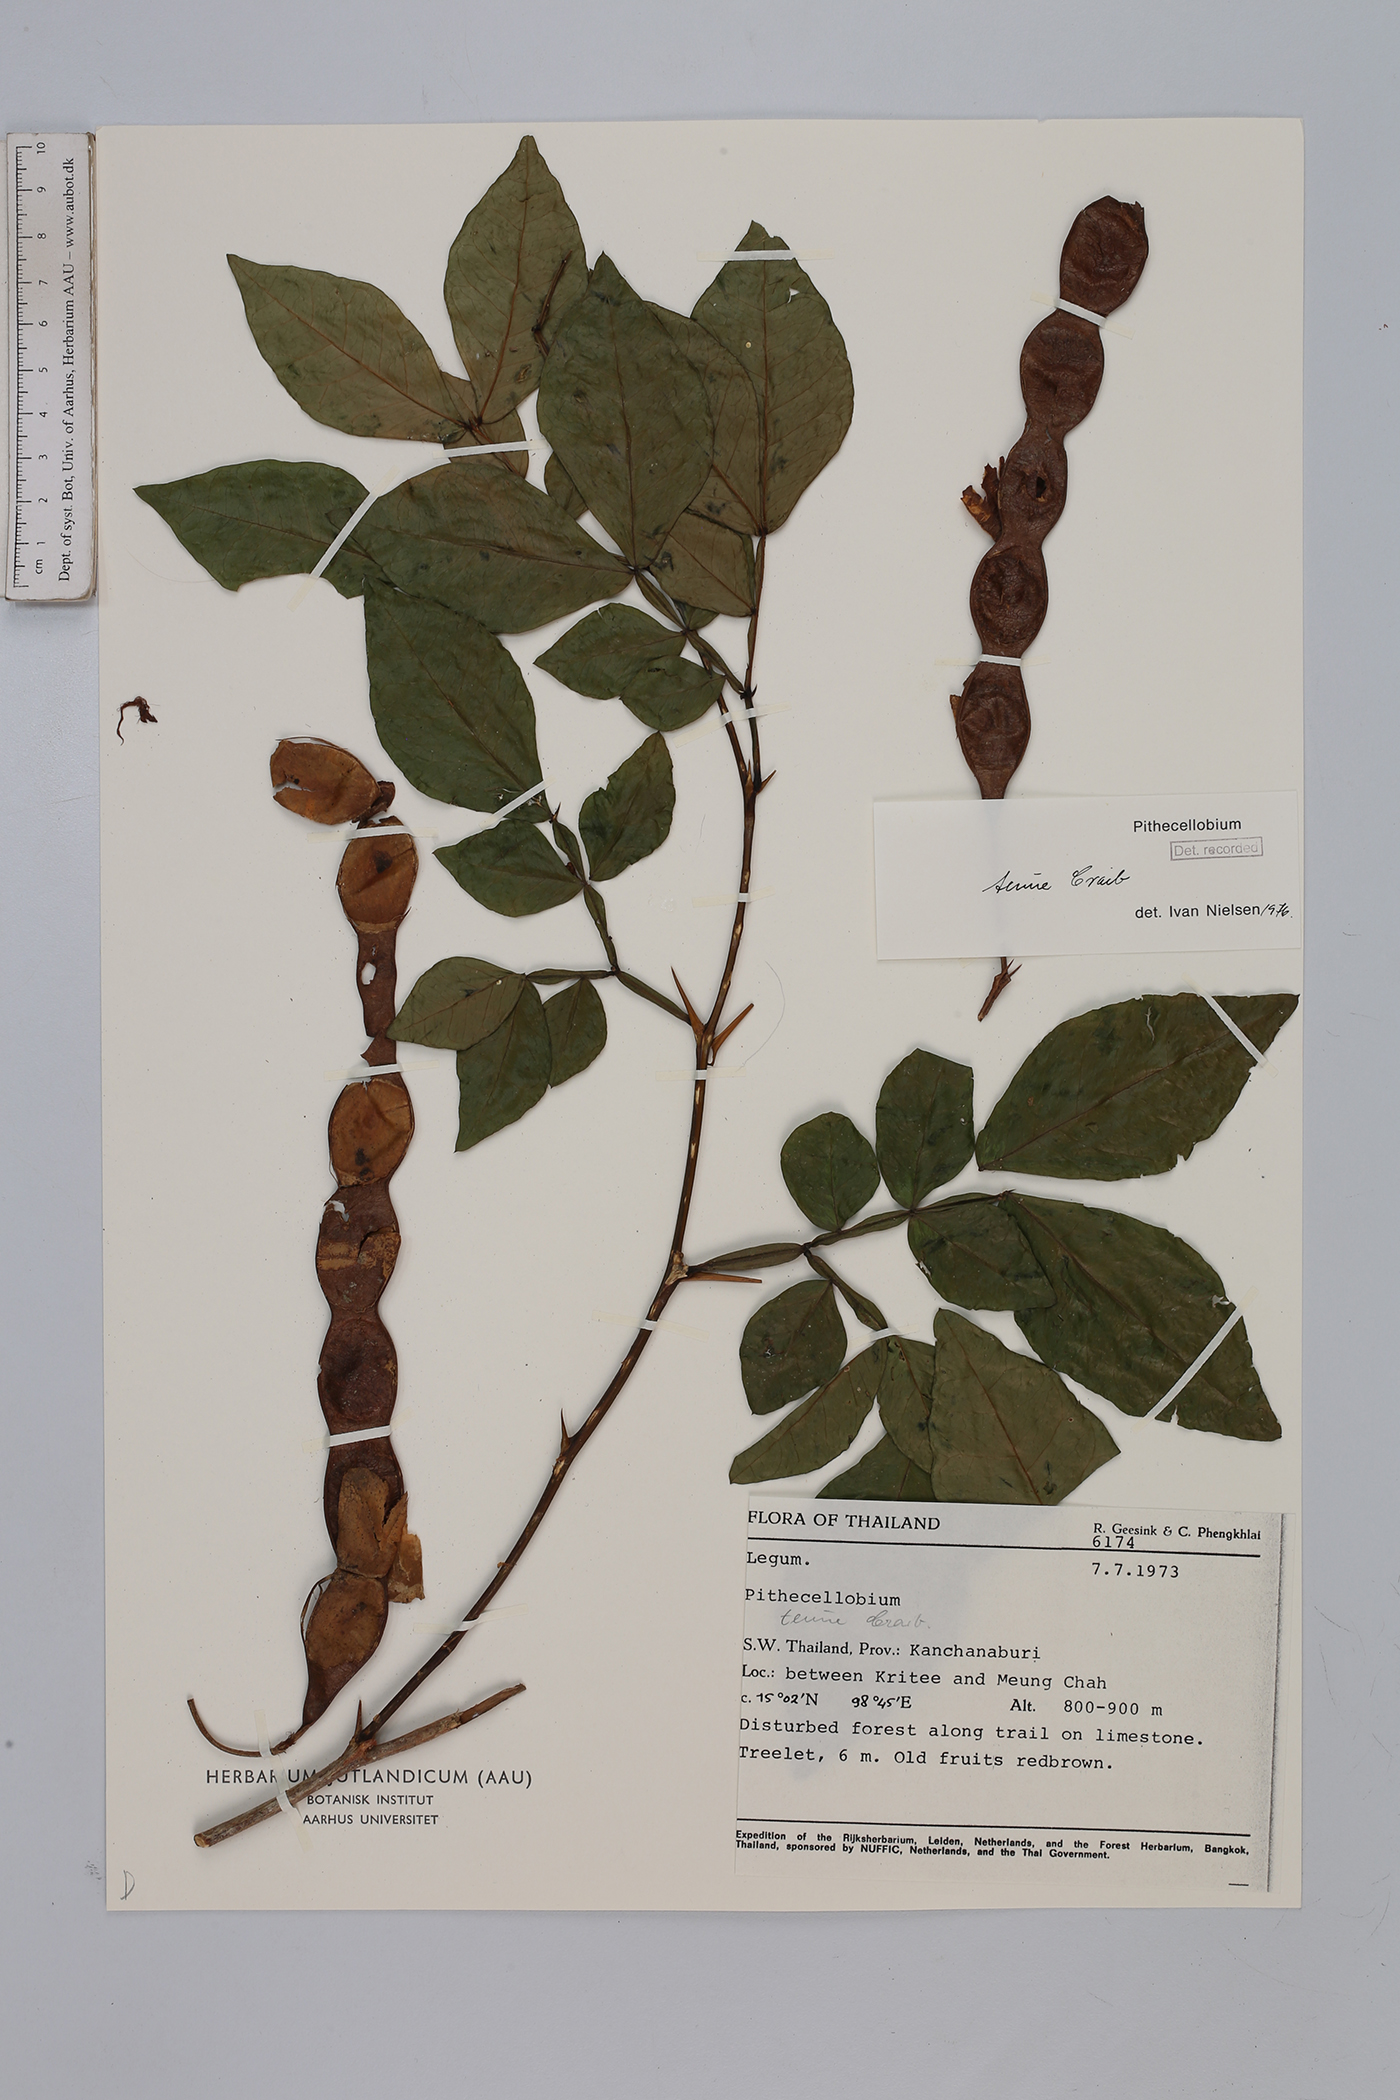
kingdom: Plantae
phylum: Tracheophyta
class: Magnoliopsida
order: Fabales
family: Fabaceae
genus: Thailentadopsis
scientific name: Thailentadopsis tenuis
